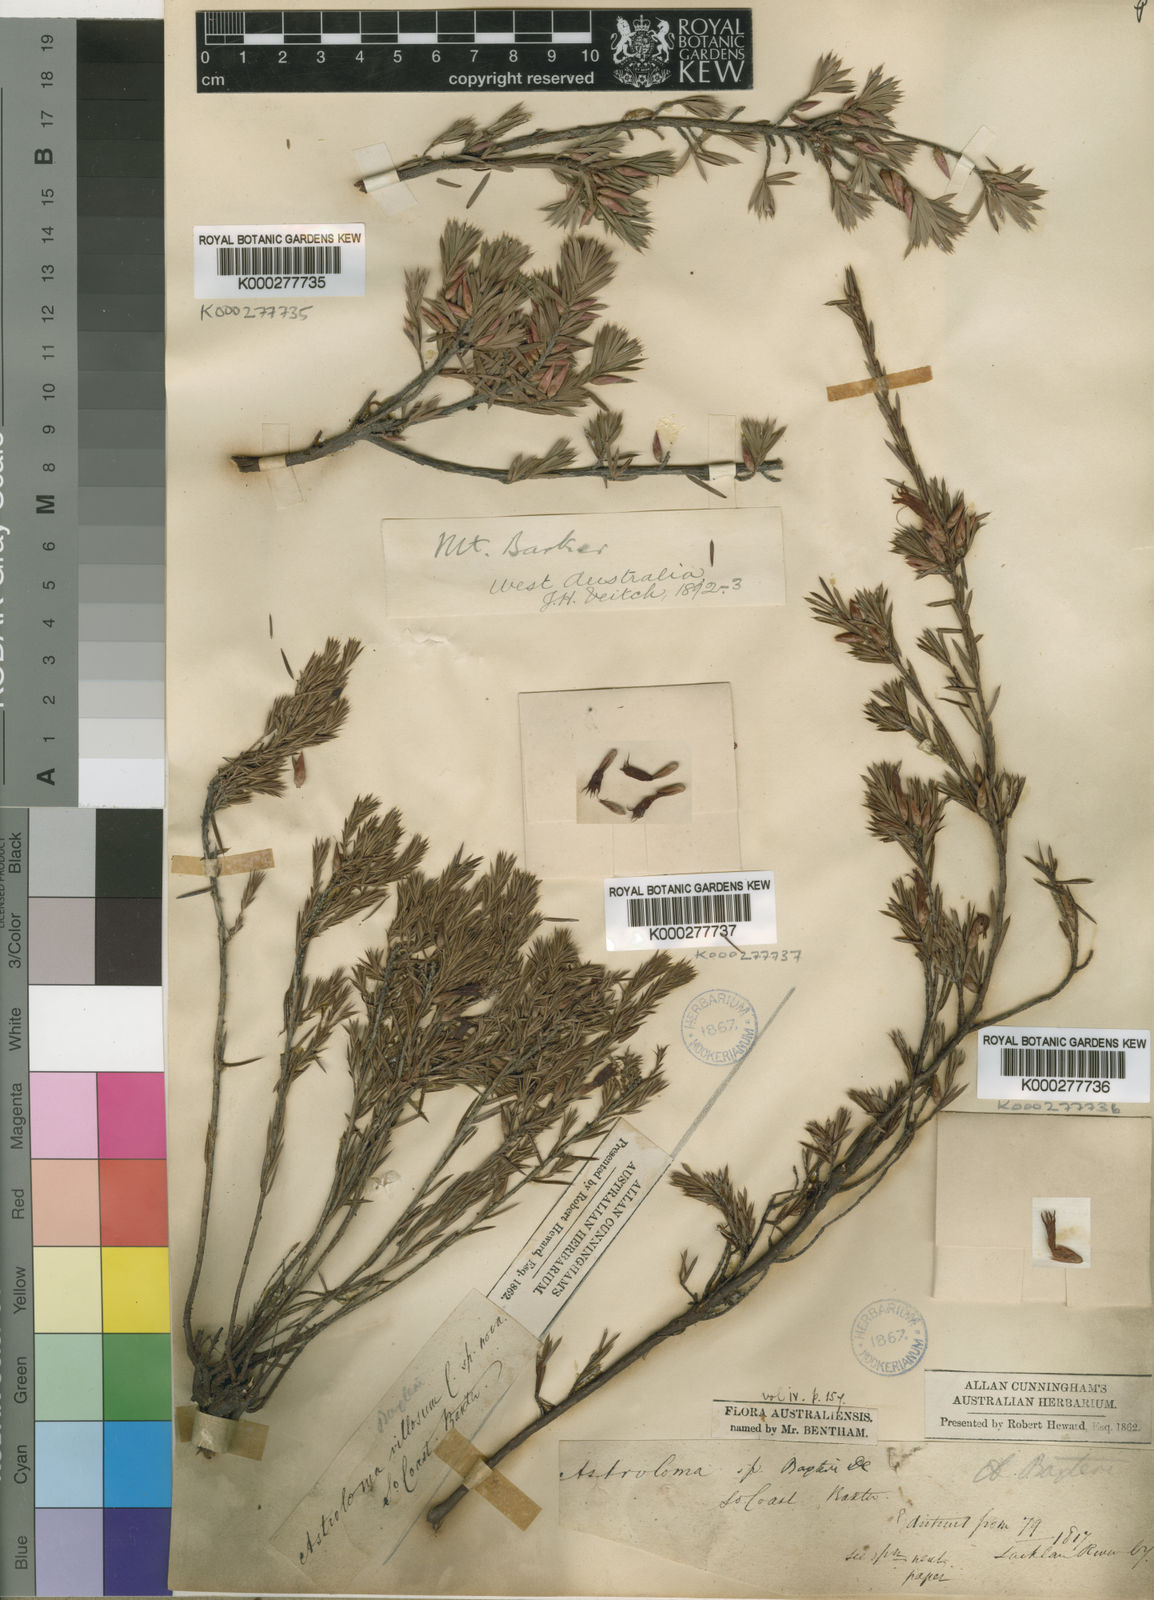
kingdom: Plantae
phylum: Tracheophyta
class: Magnoliopsida
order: Ericales
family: Ericaceae
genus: Brachyloma
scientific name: Brachyloma baxteri
